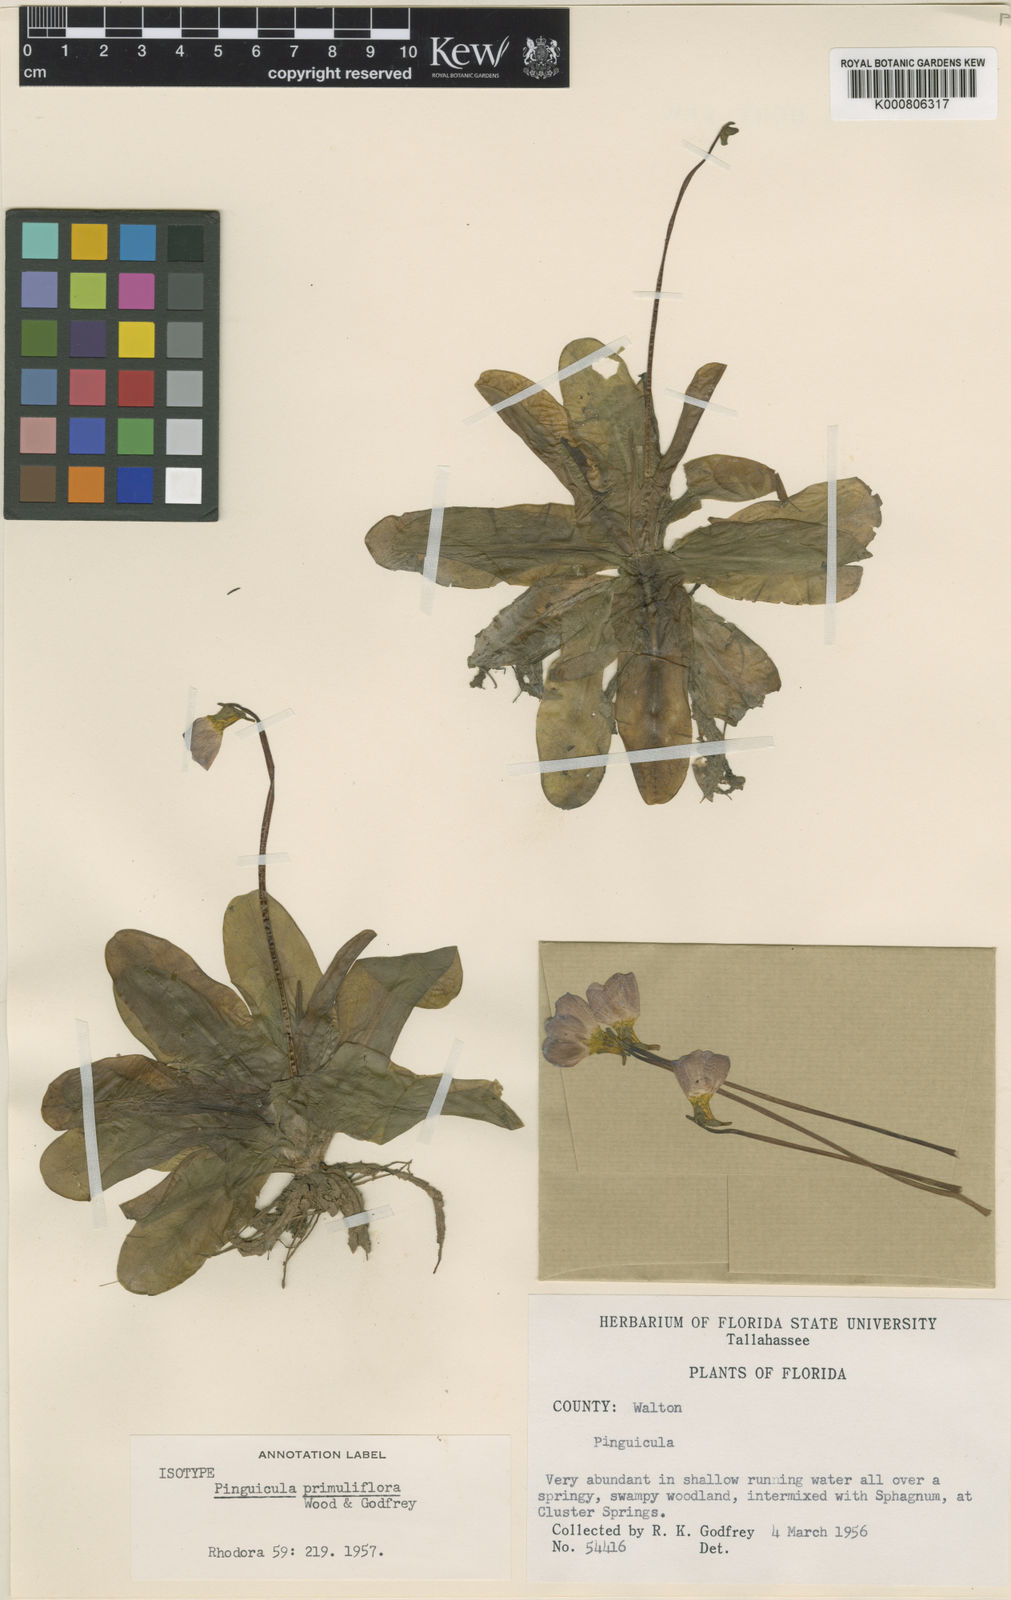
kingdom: Plantae
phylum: Tracheophyta
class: Magnoliopsida
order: Lamiales
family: Lentibulariaceae
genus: Pinguicula
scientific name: Pinguicula primuliflora
